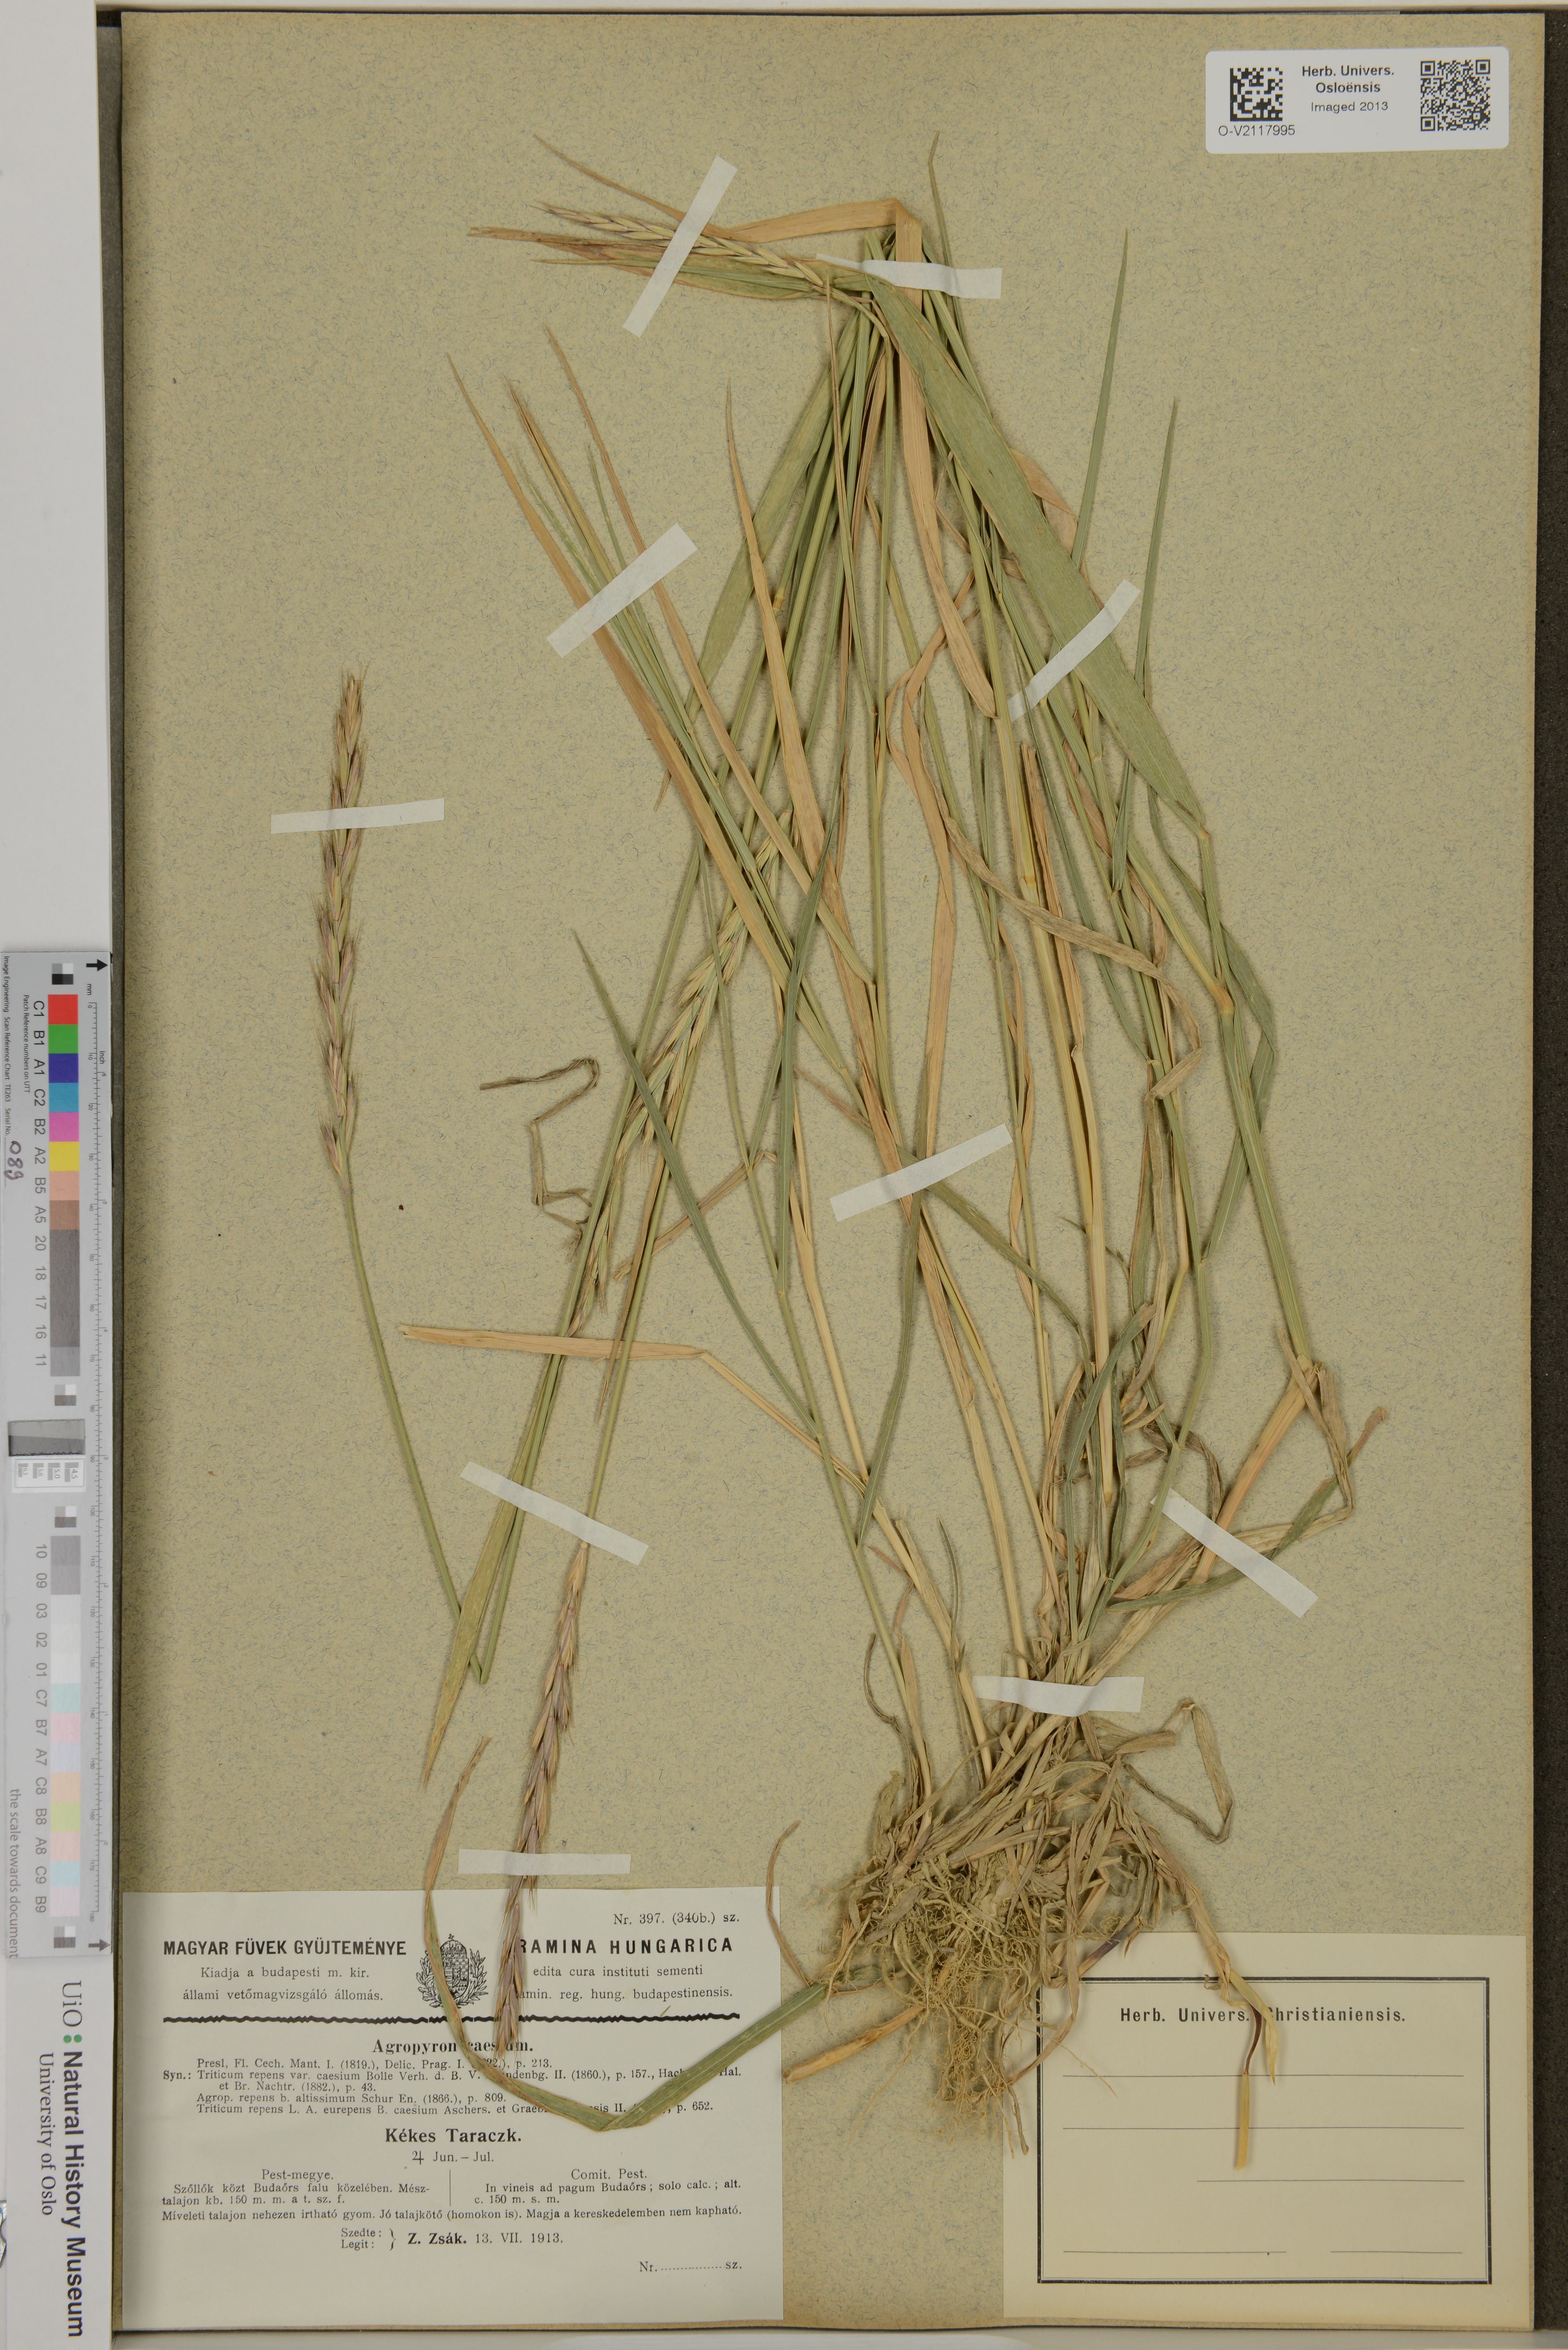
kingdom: Plantae
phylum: Tracheophyta
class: Liliopsida
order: Poales
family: Poaceae
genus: Elymus
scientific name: Elymus repens
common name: Quackgrass
